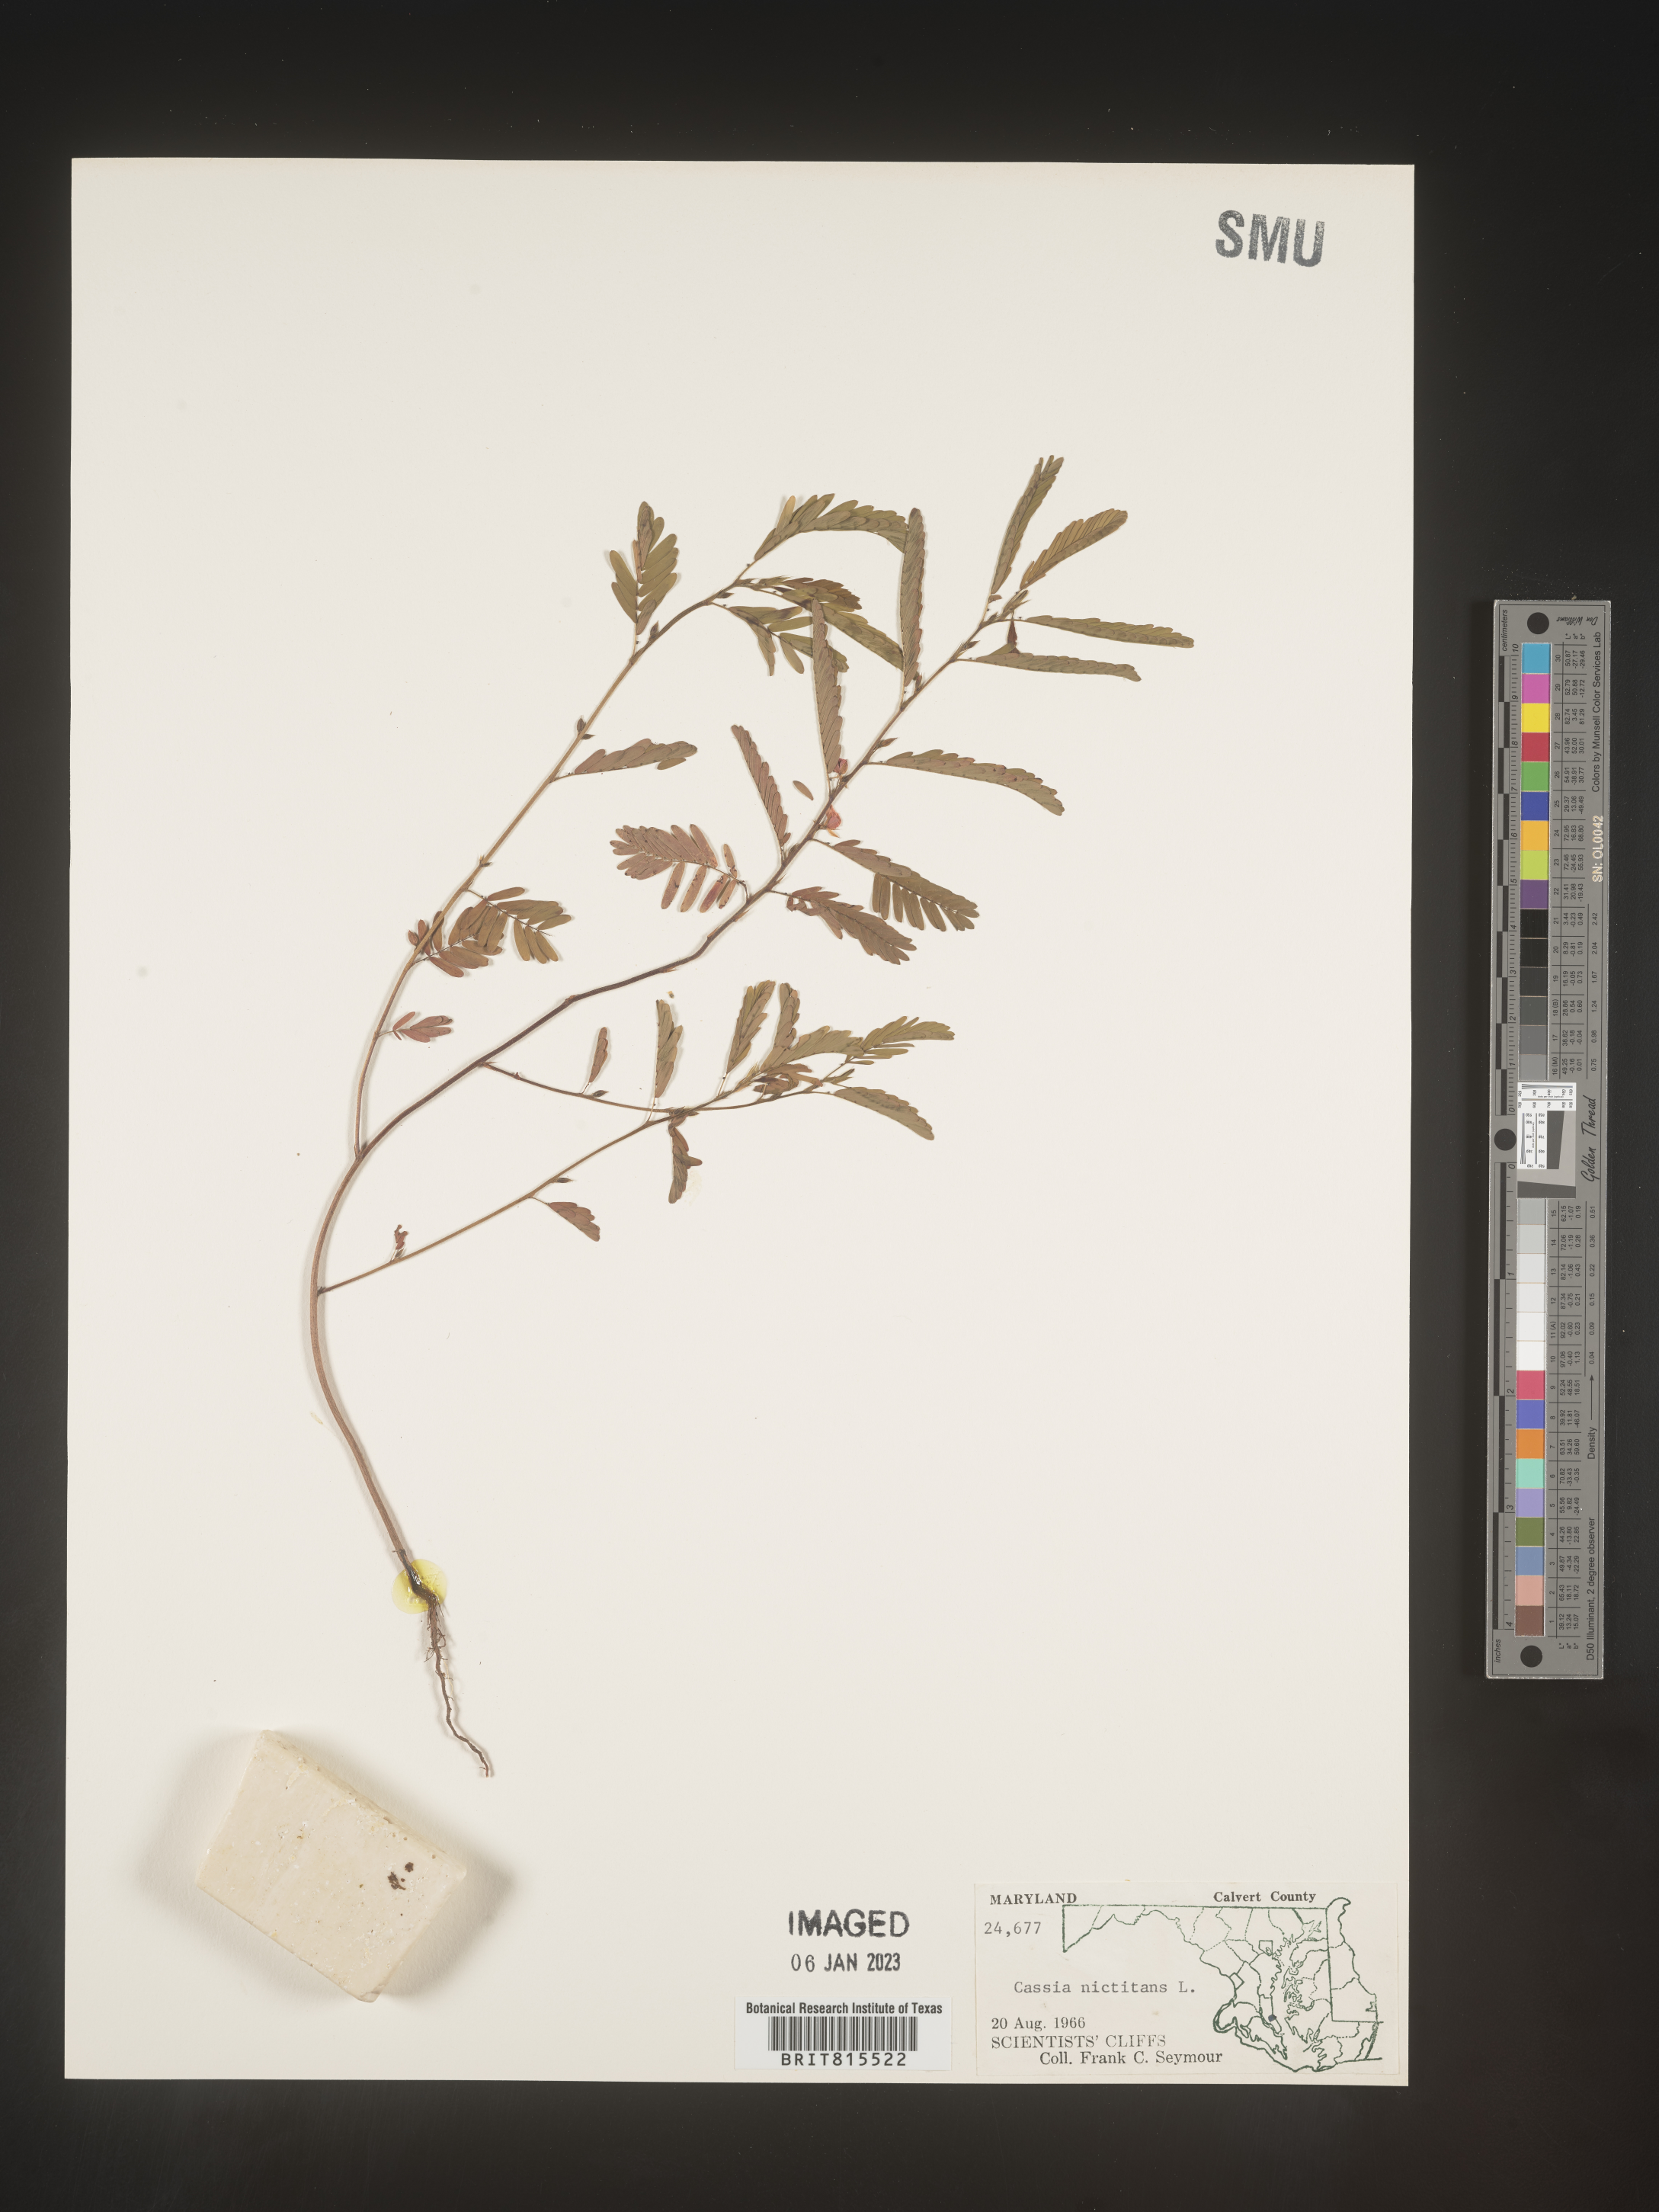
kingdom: Plantae
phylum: Tracheophyta
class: Magnoliopsida
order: Fabales
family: Fabaceae
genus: Chamaecrista
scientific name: Chamaecrista nictitans
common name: Sensitive cassia
